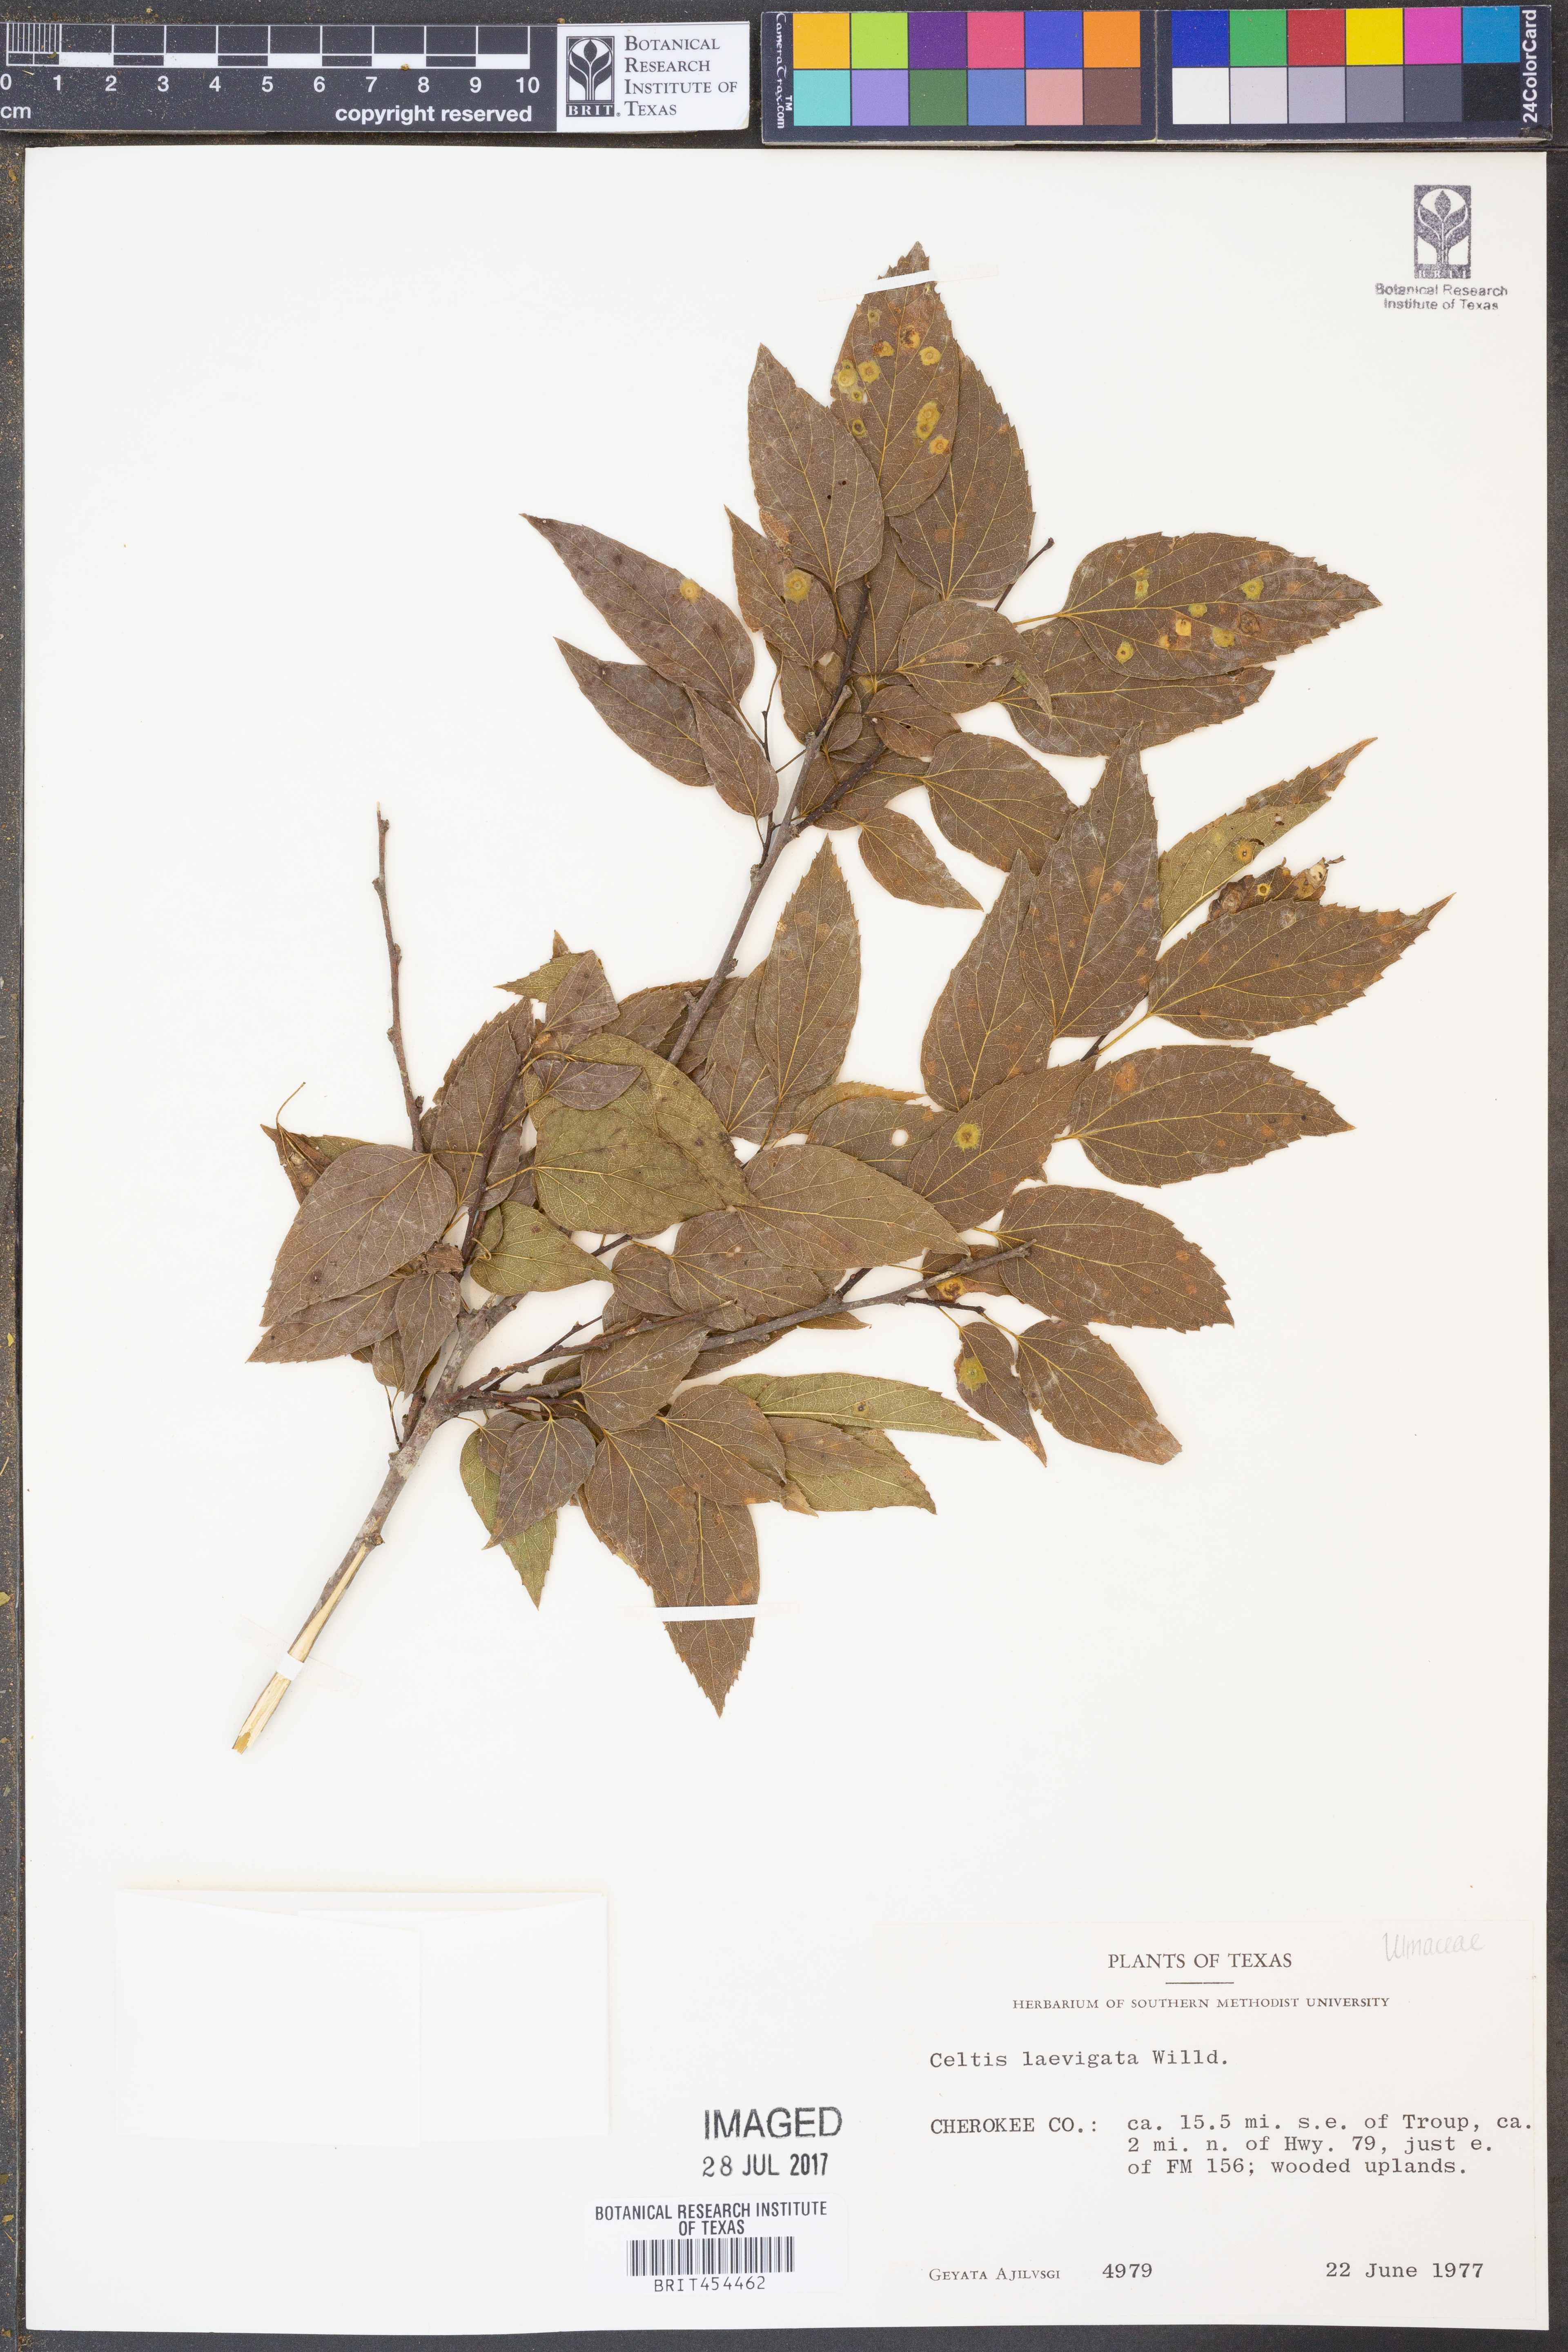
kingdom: Plantae
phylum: Tracheophyta
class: Magnoliopsida
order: Rosales
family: Cannabaceae
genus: Celtis
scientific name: Celtis laevigata
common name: Sugarberry
